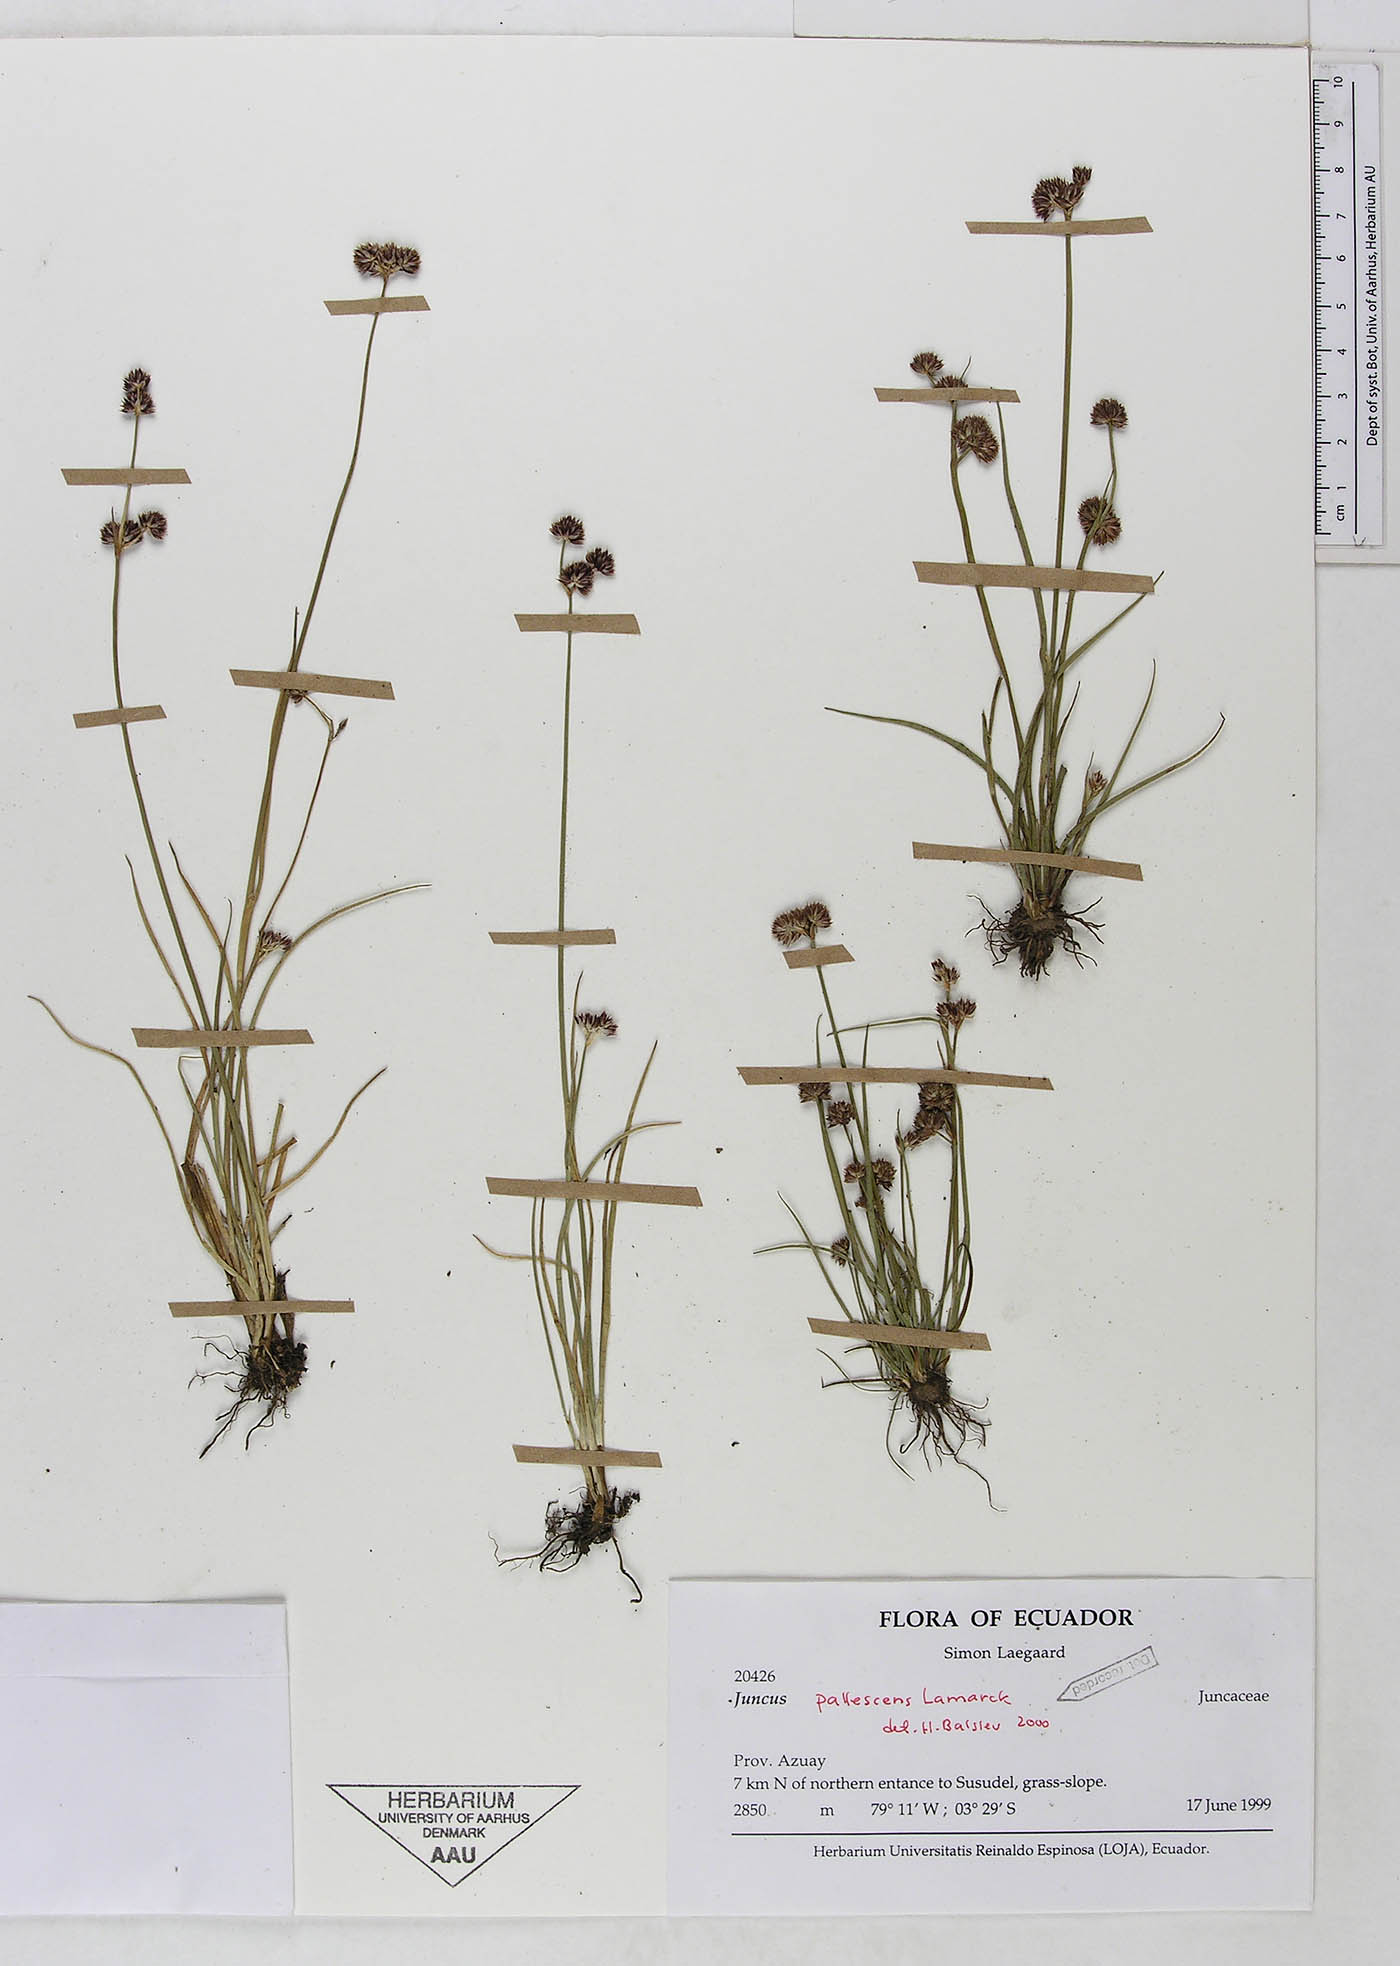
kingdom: Plantae
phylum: Tracheophyta
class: Liliopsida
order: Poales
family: Juncaceae
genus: Juncus
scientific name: Juncus pallescens
